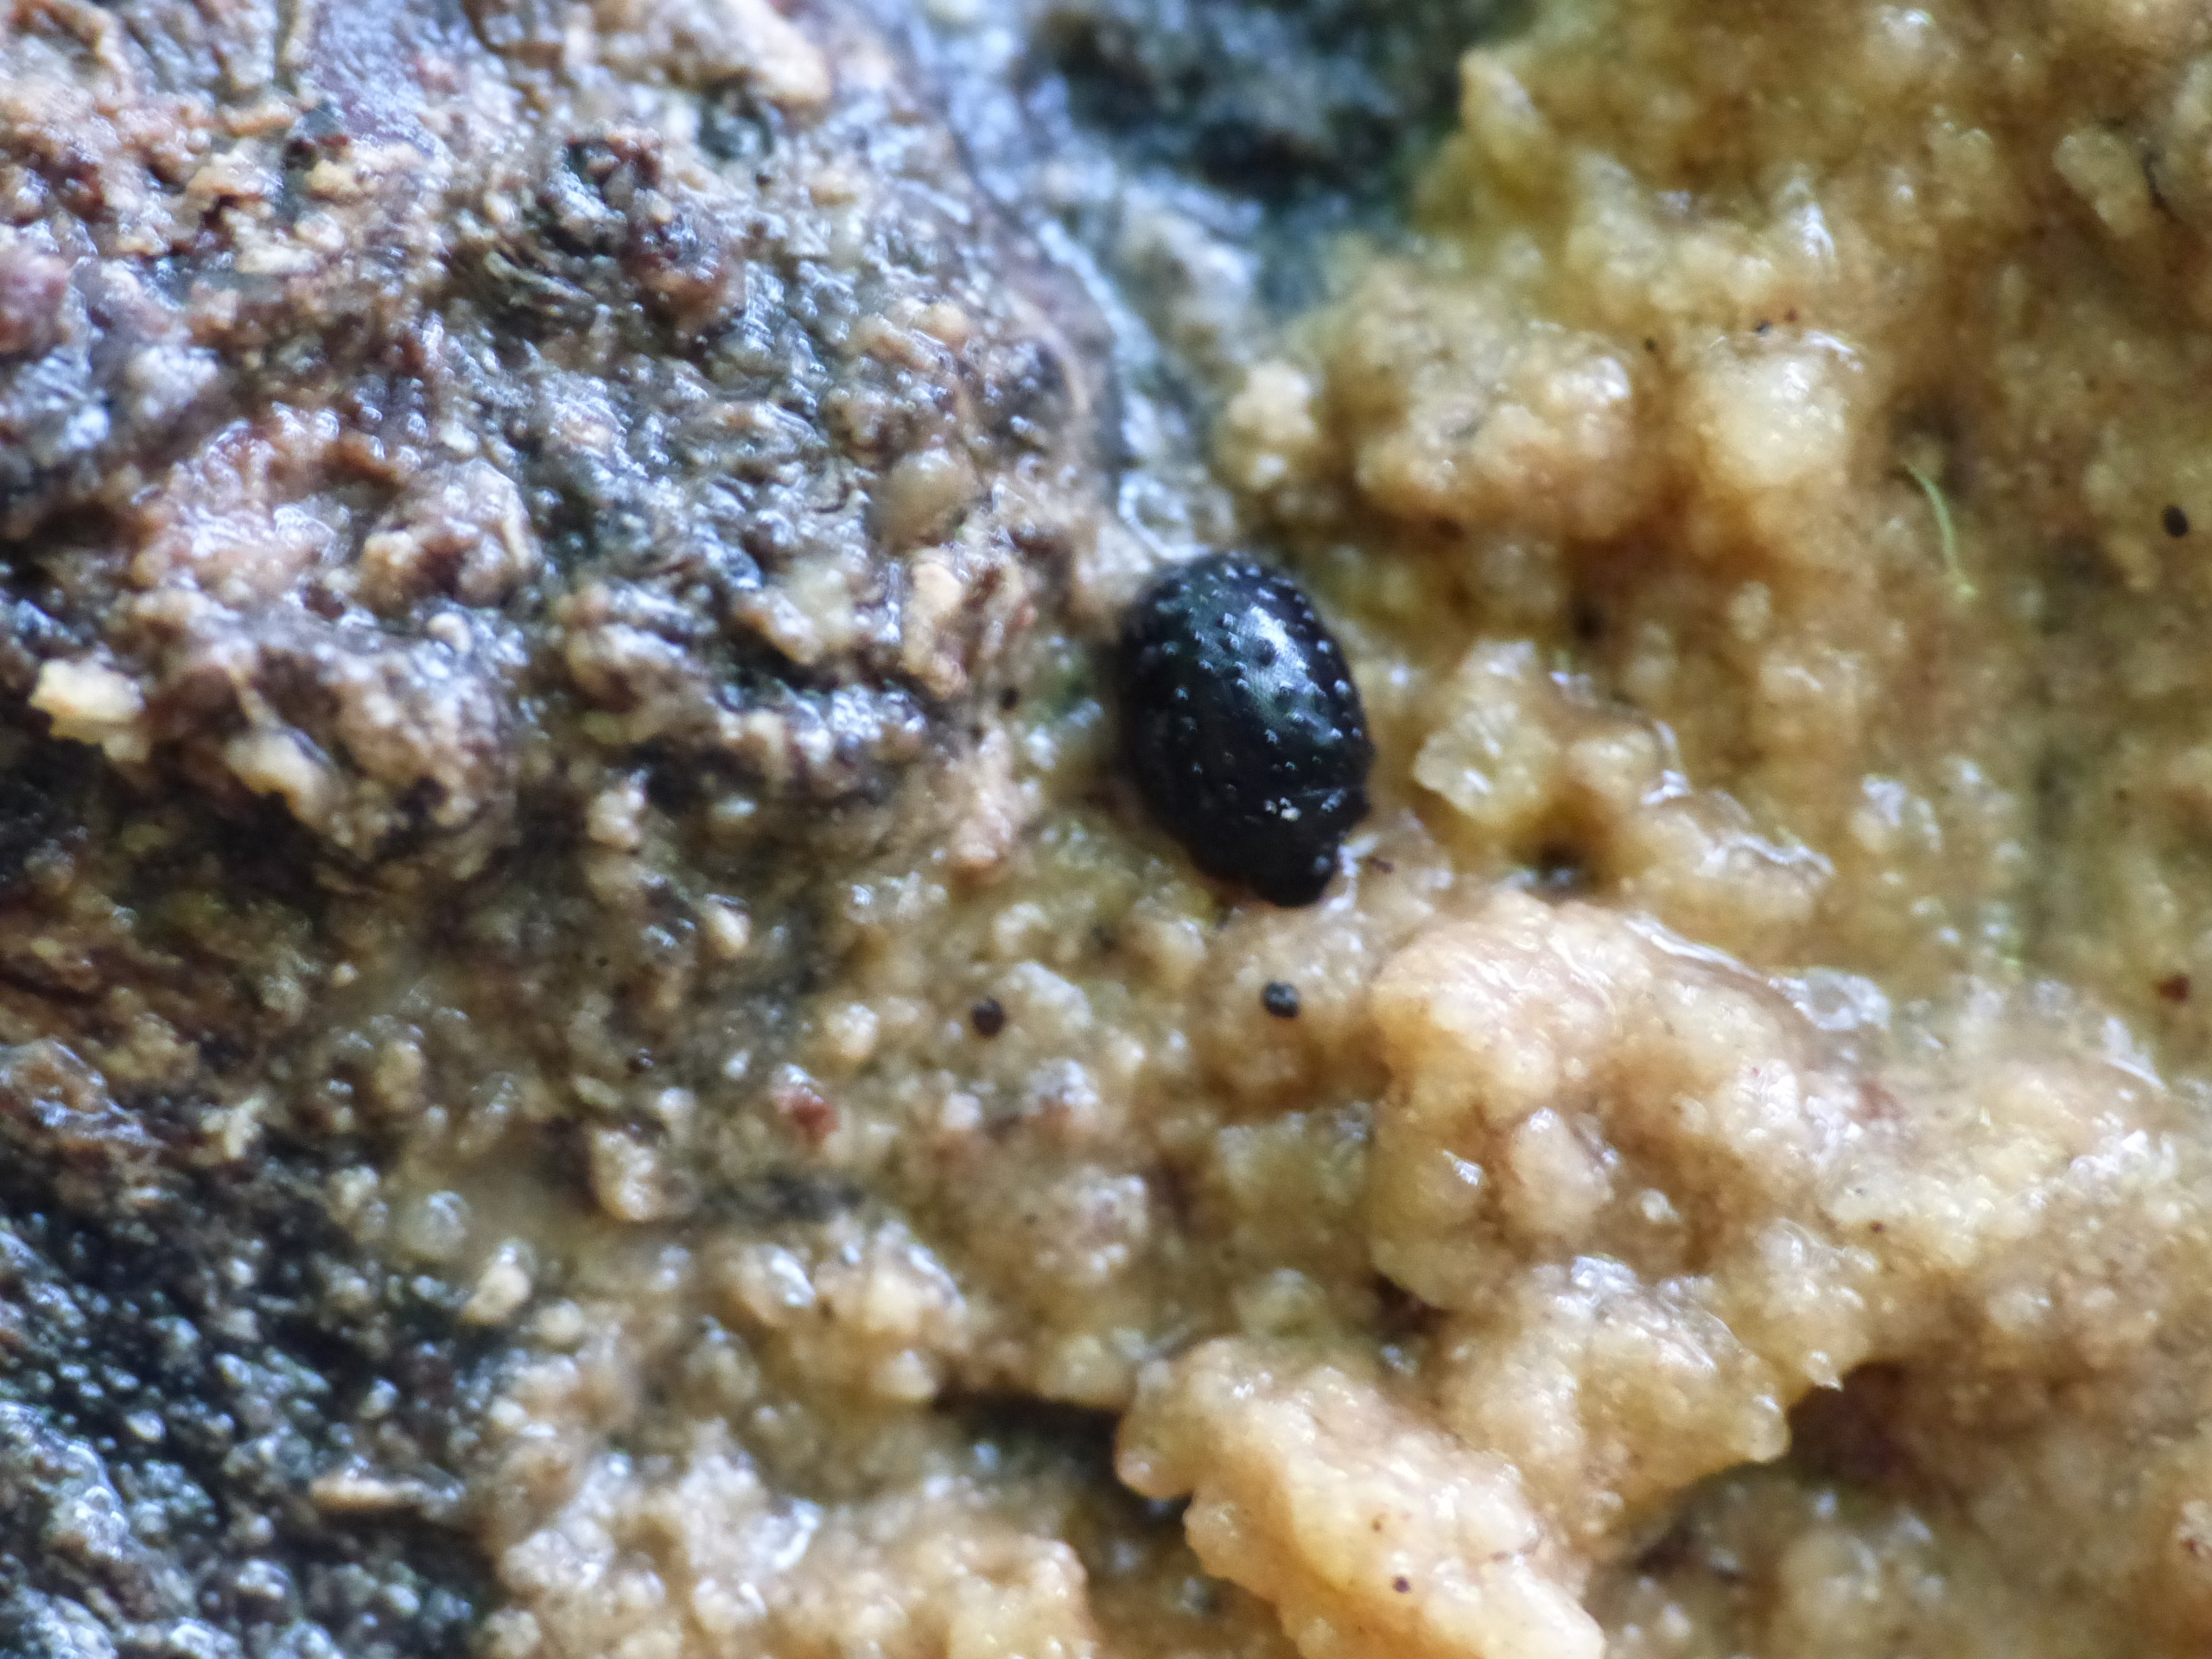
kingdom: Animalia
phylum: Arthropoda
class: Insecta
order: Coleoptera
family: Nosodendridae
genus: Nosodendron
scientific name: Nosodendron fasciculare
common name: Elmesaftbille
